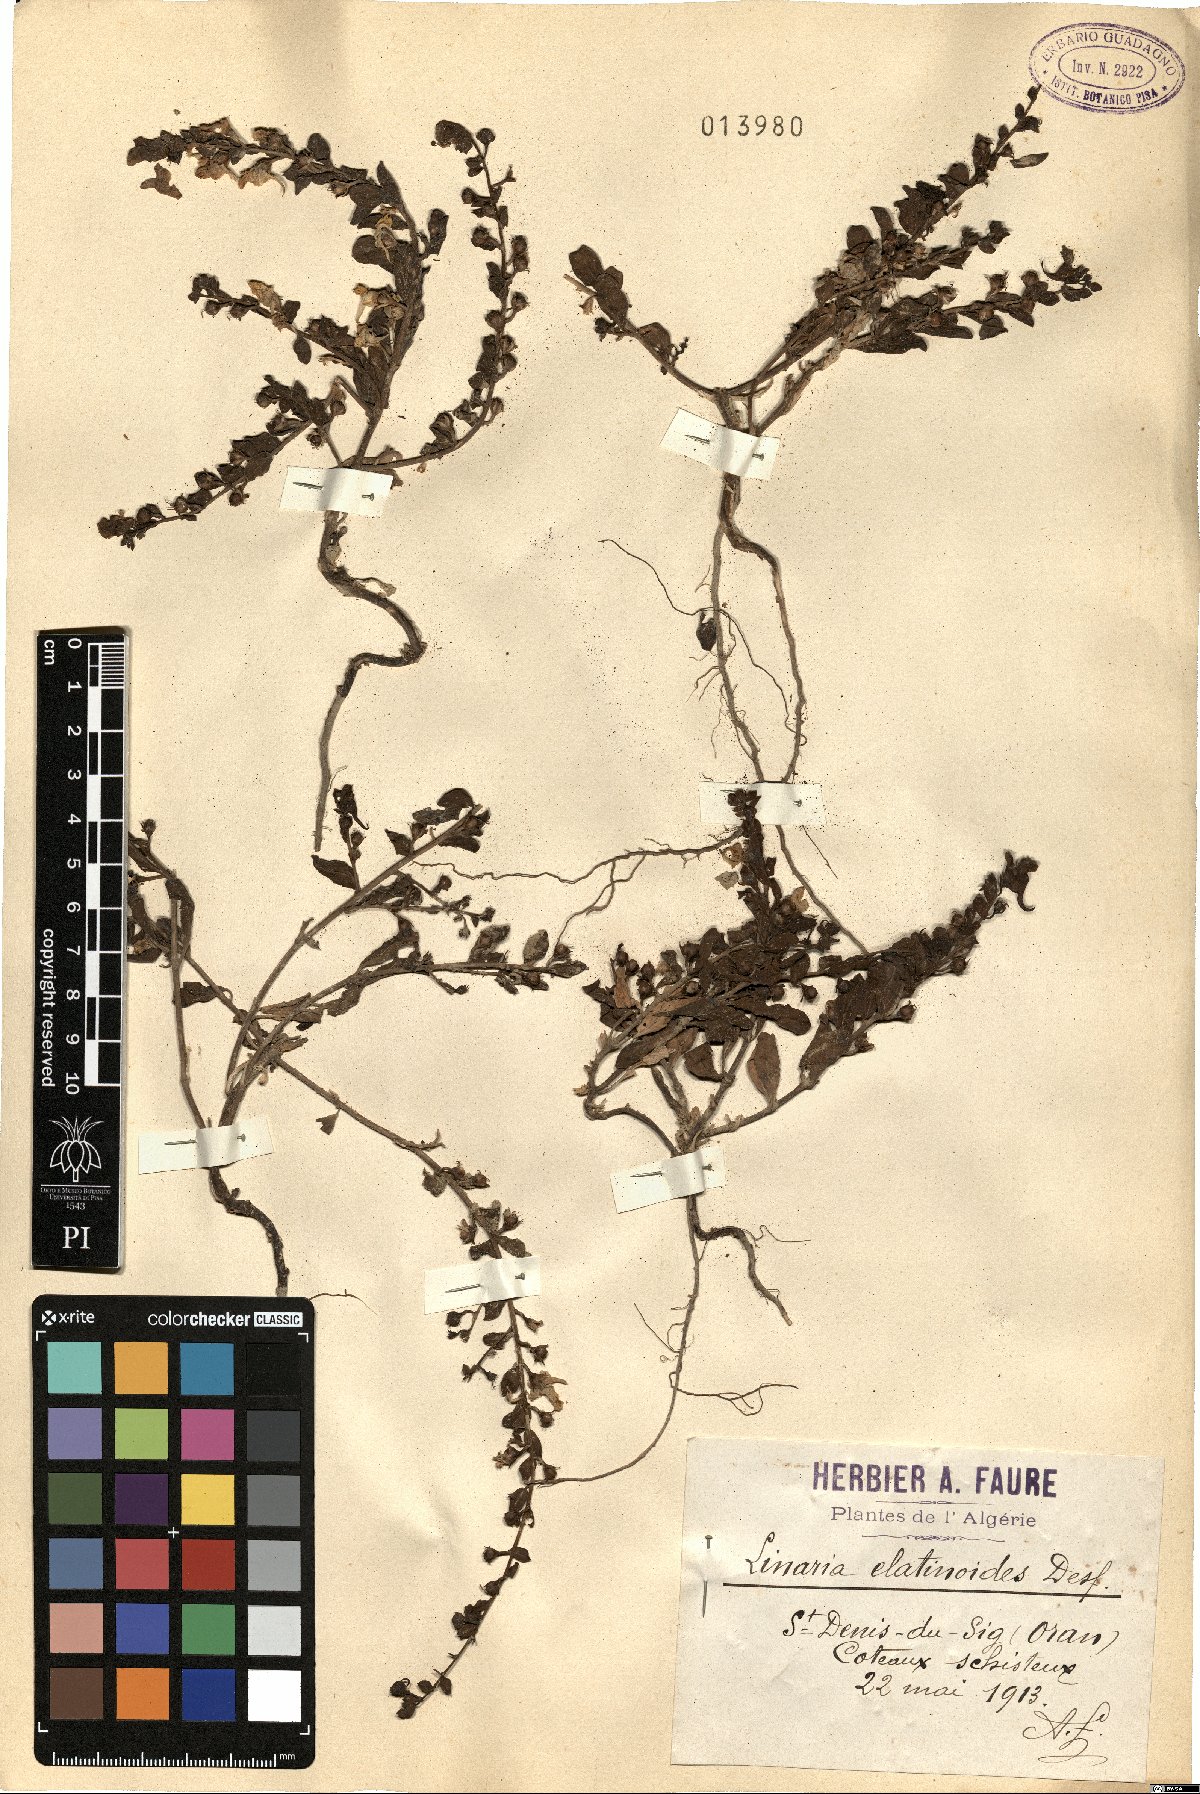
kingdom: Plantae
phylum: Tracheophyta
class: Magnoliopsida
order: Lamiales
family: Plantaginaceae
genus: Kickxia
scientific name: Kickxia elatinoides
